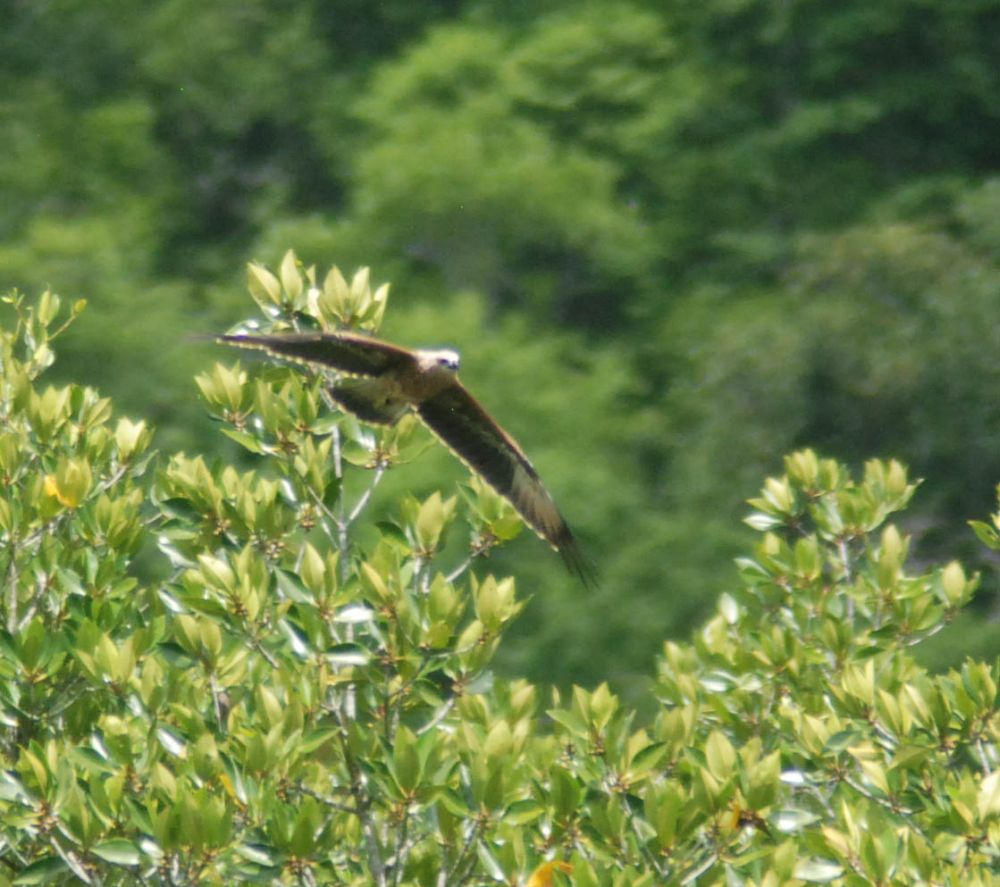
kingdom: Animalia
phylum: Chordata
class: Aves
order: Accipitriformes
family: Accipitridae
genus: Haliastur
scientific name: Haliastur indus
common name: Brahminy kite
